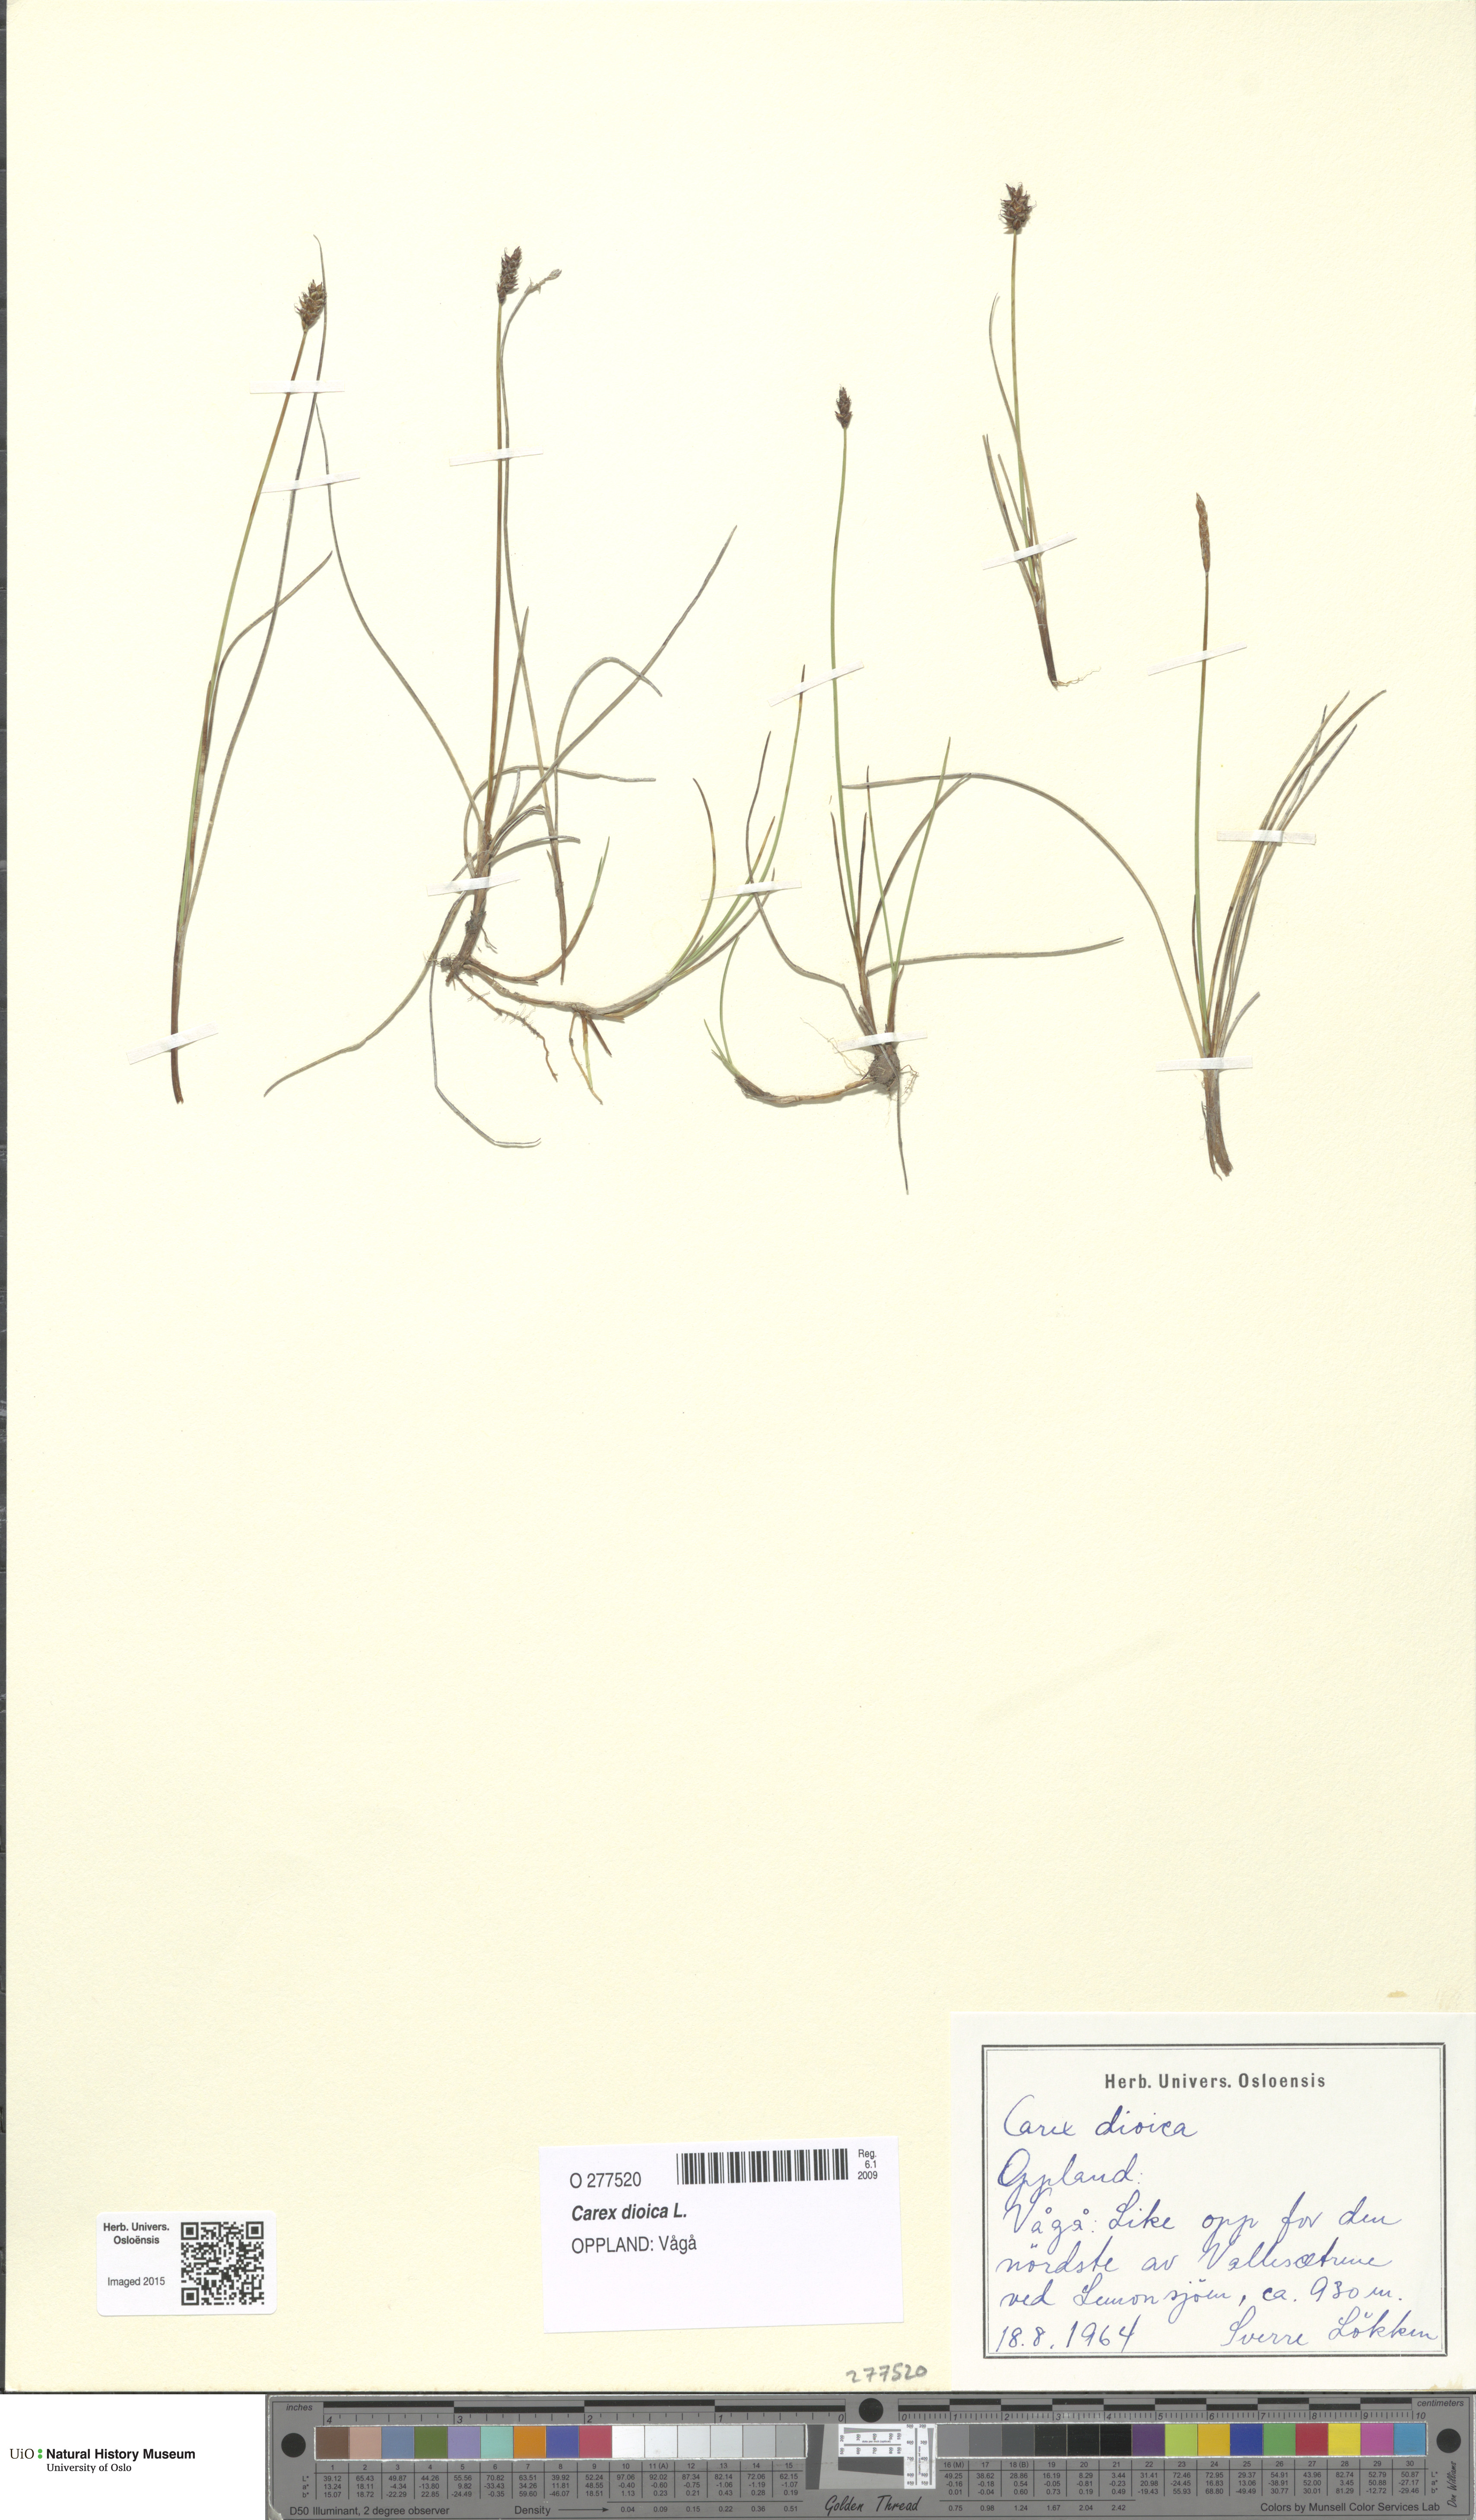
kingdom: Plantae
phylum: Tracheophyta
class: Liliopsida
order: Poales
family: Cyperaceae
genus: Carex
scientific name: Carex dioica
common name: Dioecious sedge
